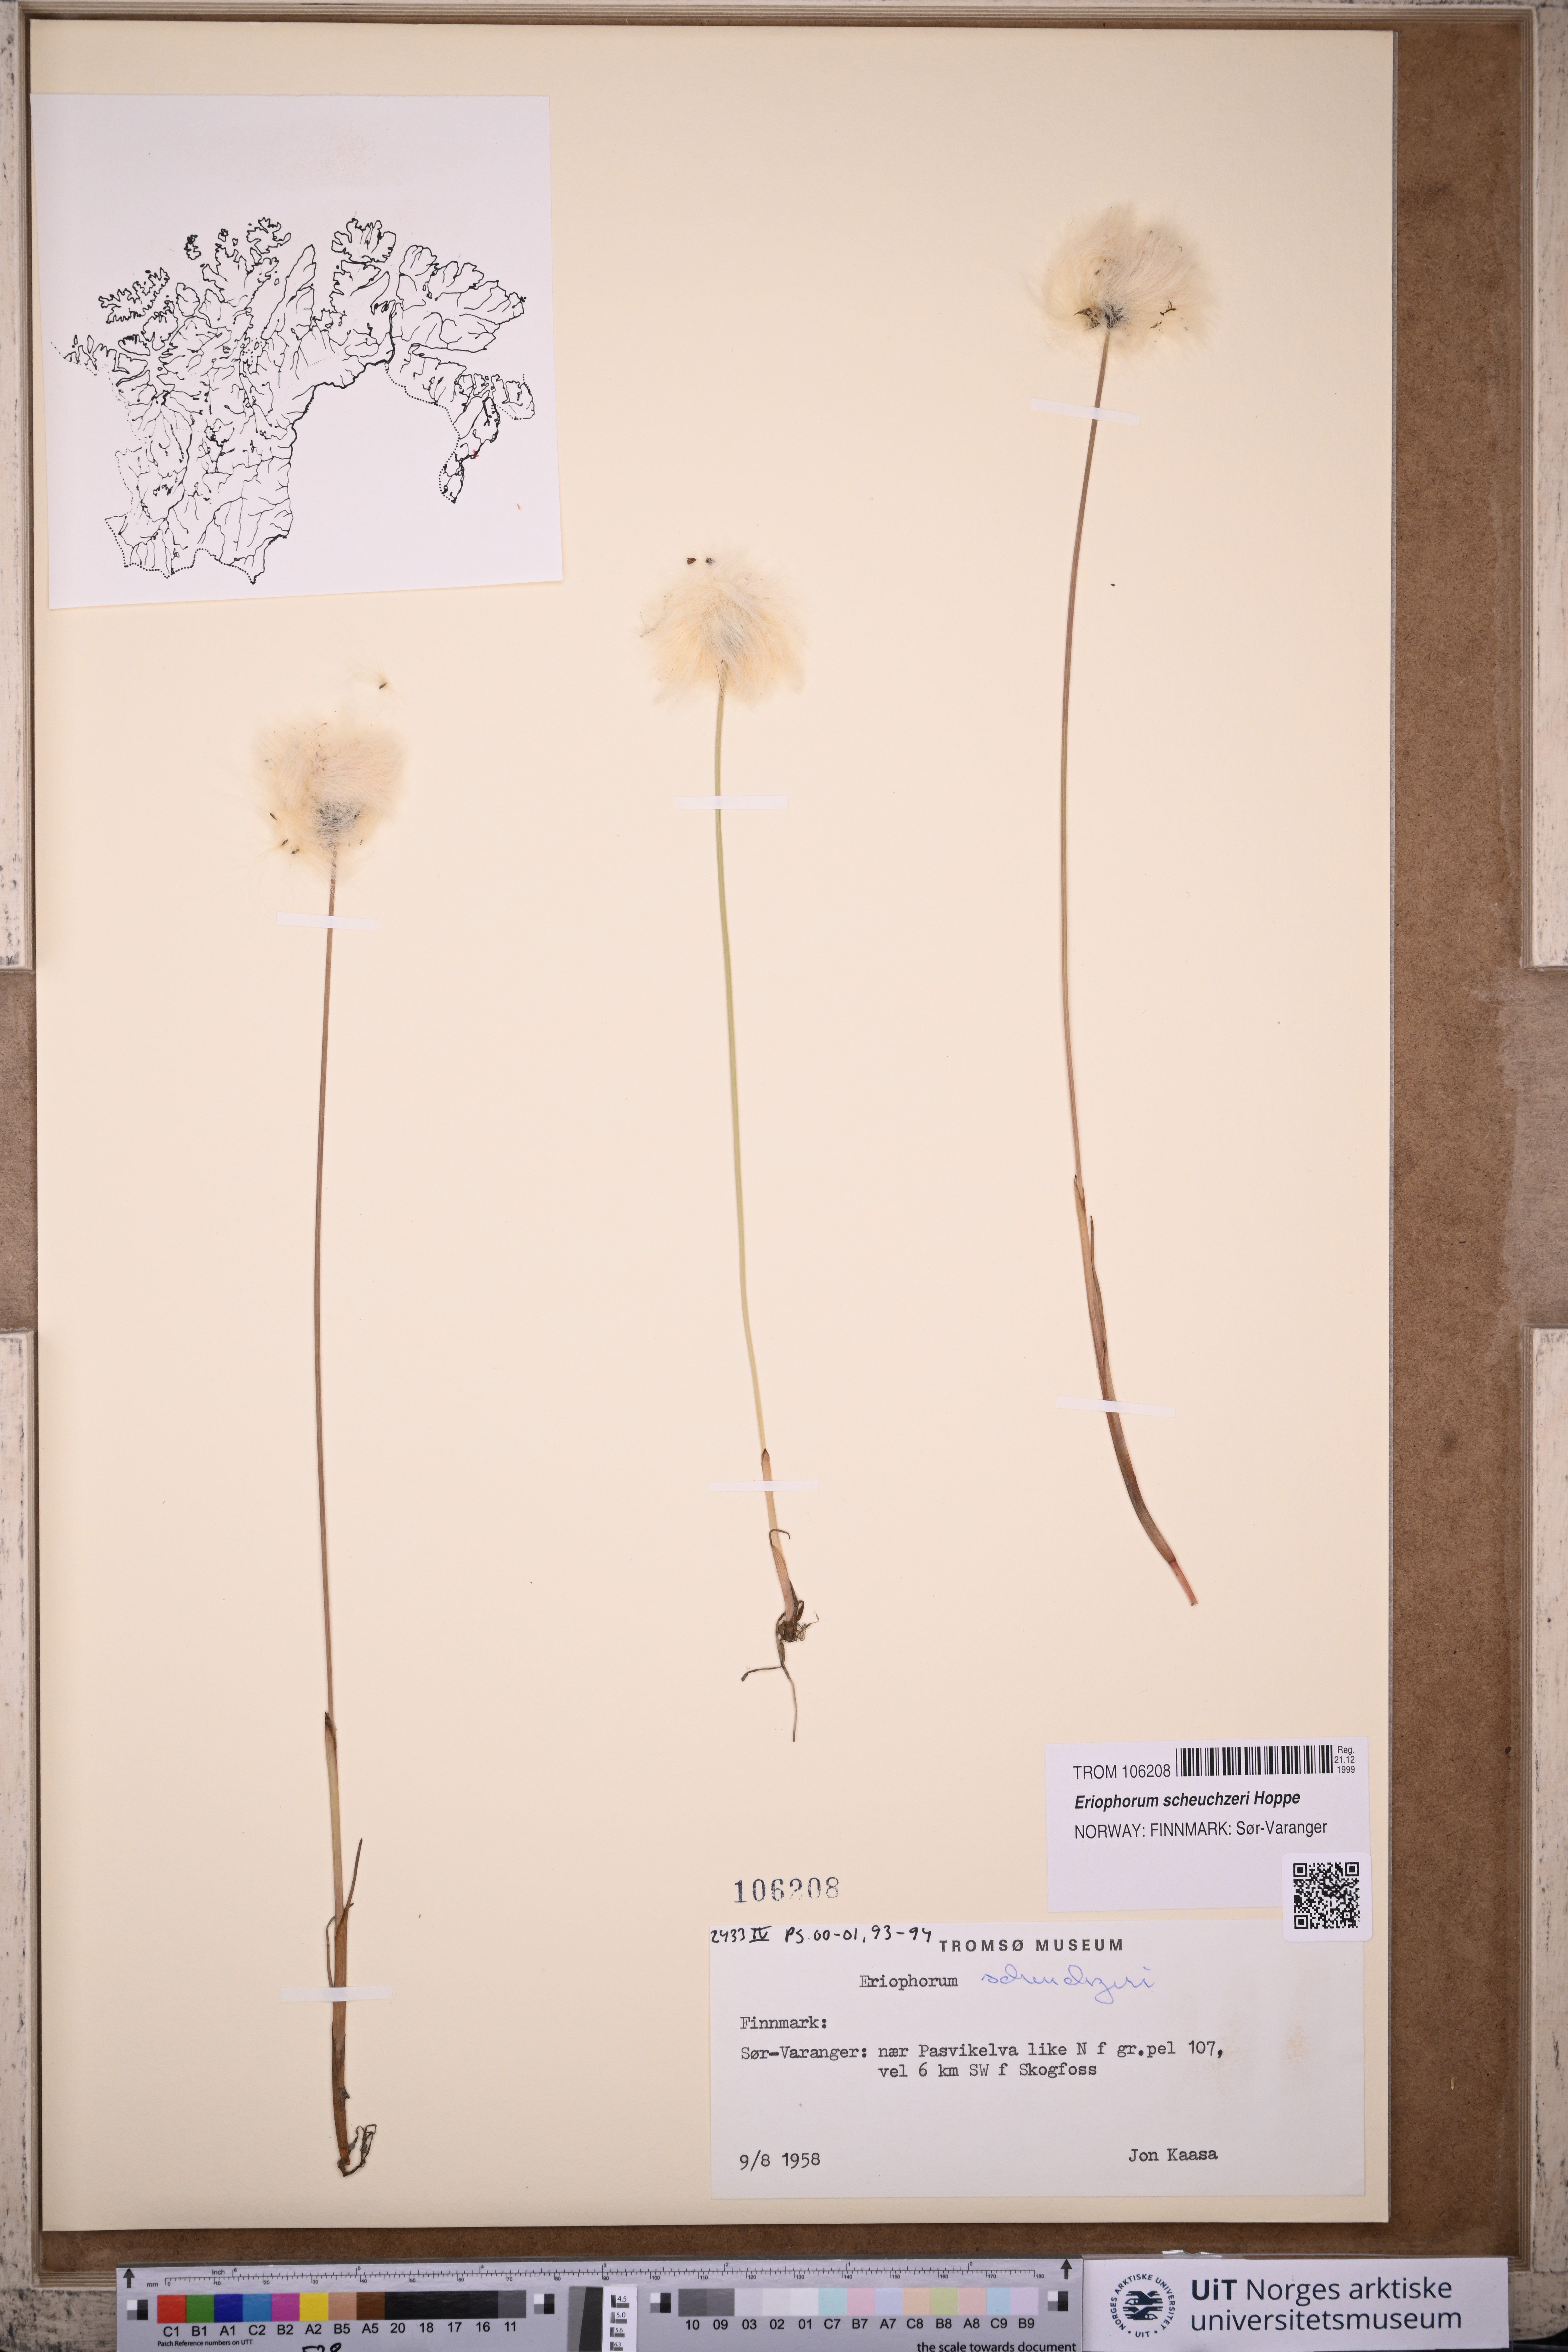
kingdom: Plantae
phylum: Tracheophyta
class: Liliopsida
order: Poales
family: Cyperaceae
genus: Eriophorum
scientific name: Eriophorum scheuchzeri
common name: Scheuchzer's cottongrass
